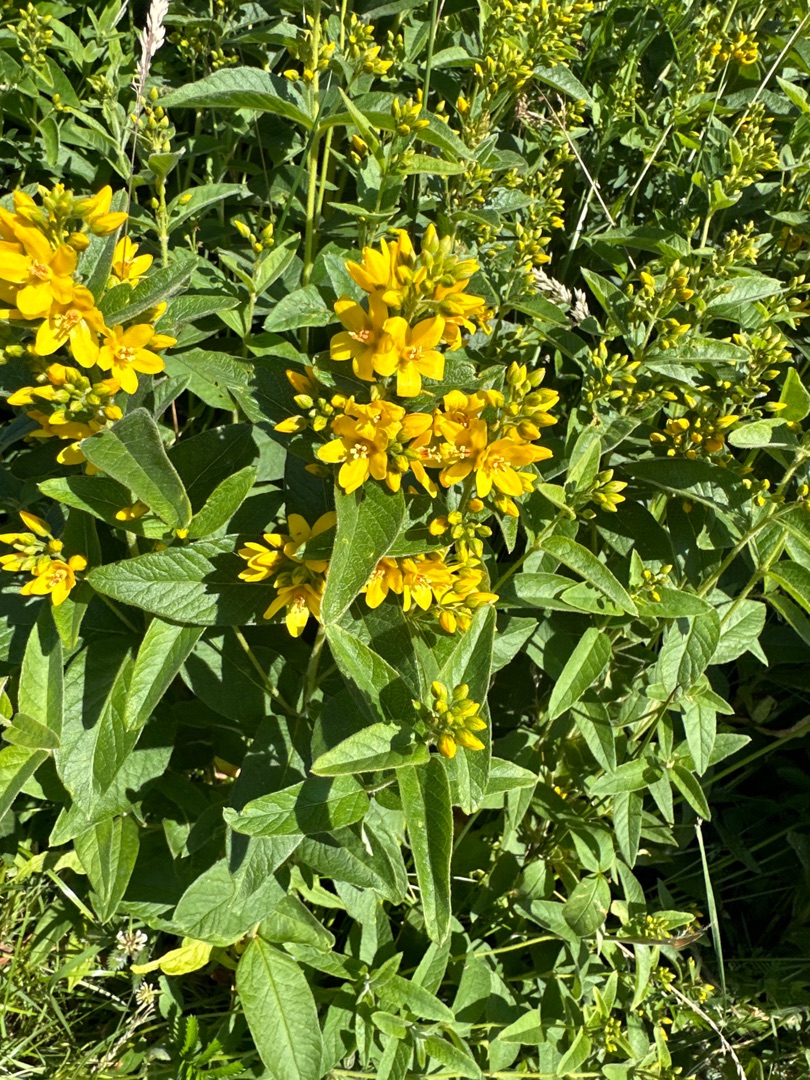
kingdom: Plantae
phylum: Tracheophyta
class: Magnoliopsida
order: Ericales
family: Primulaceae
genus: Lysimachia
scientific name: Lysimachia vulgaris
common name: Almindelig fredløs
